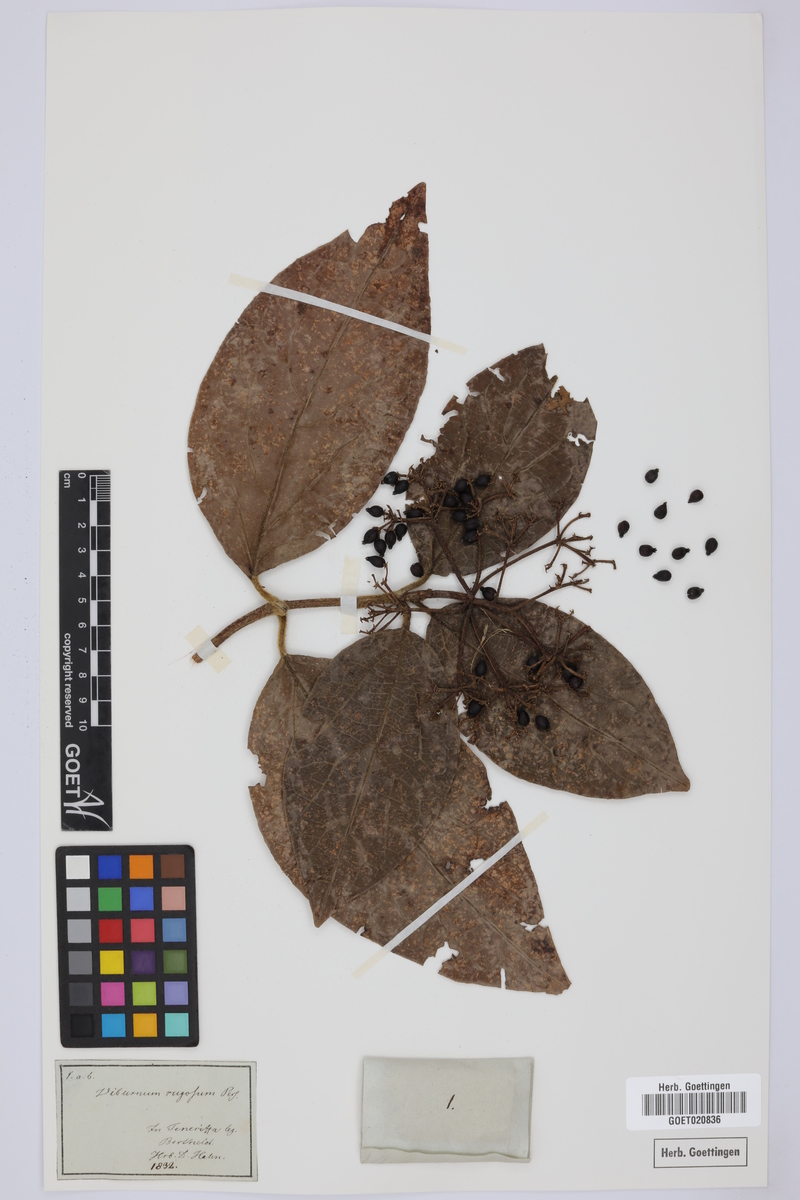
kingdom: Plantae
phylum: Tracheophyta
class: Magnoliopsida
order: Dipsacales
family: Viburnaceae
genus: Viburnum
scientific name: Viburnum rugosum
